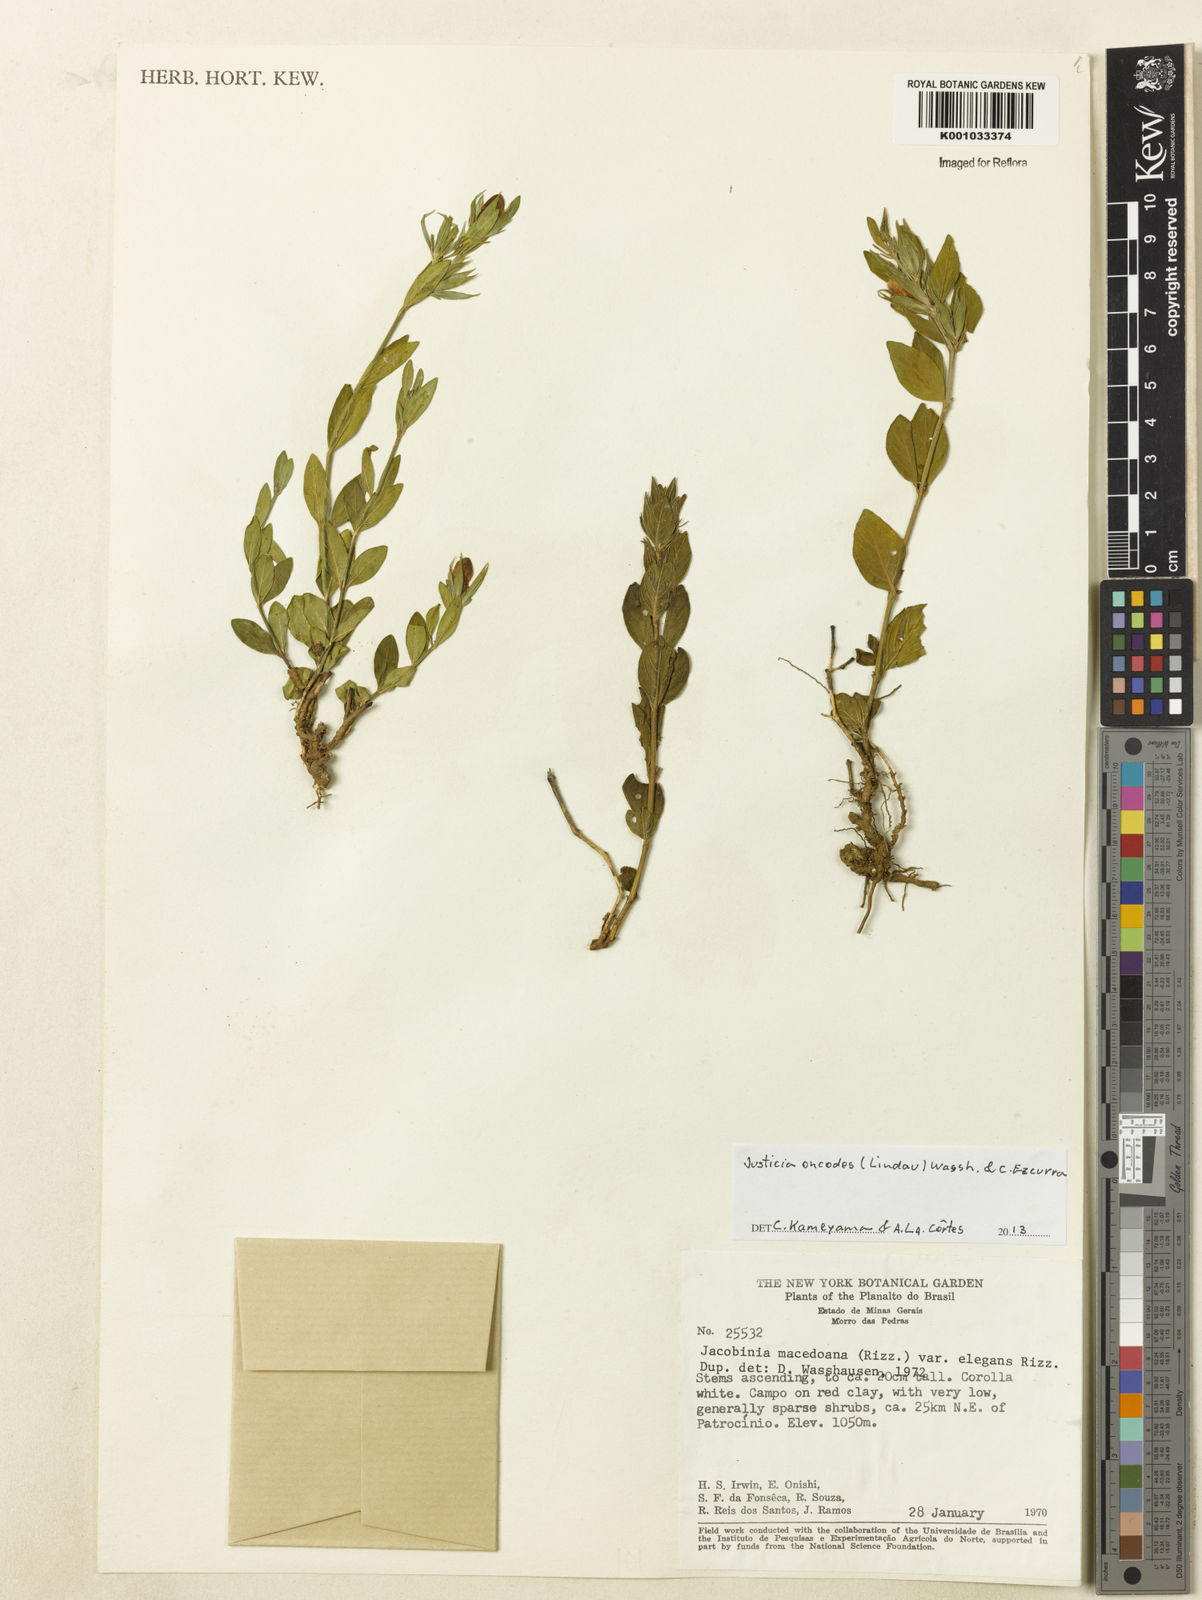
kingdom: Plantae
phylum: Tracheophyta
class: Magnoliopsida
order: Lamiales
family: Acanthaceae
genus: Justicia
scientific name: Justicia oncodes
